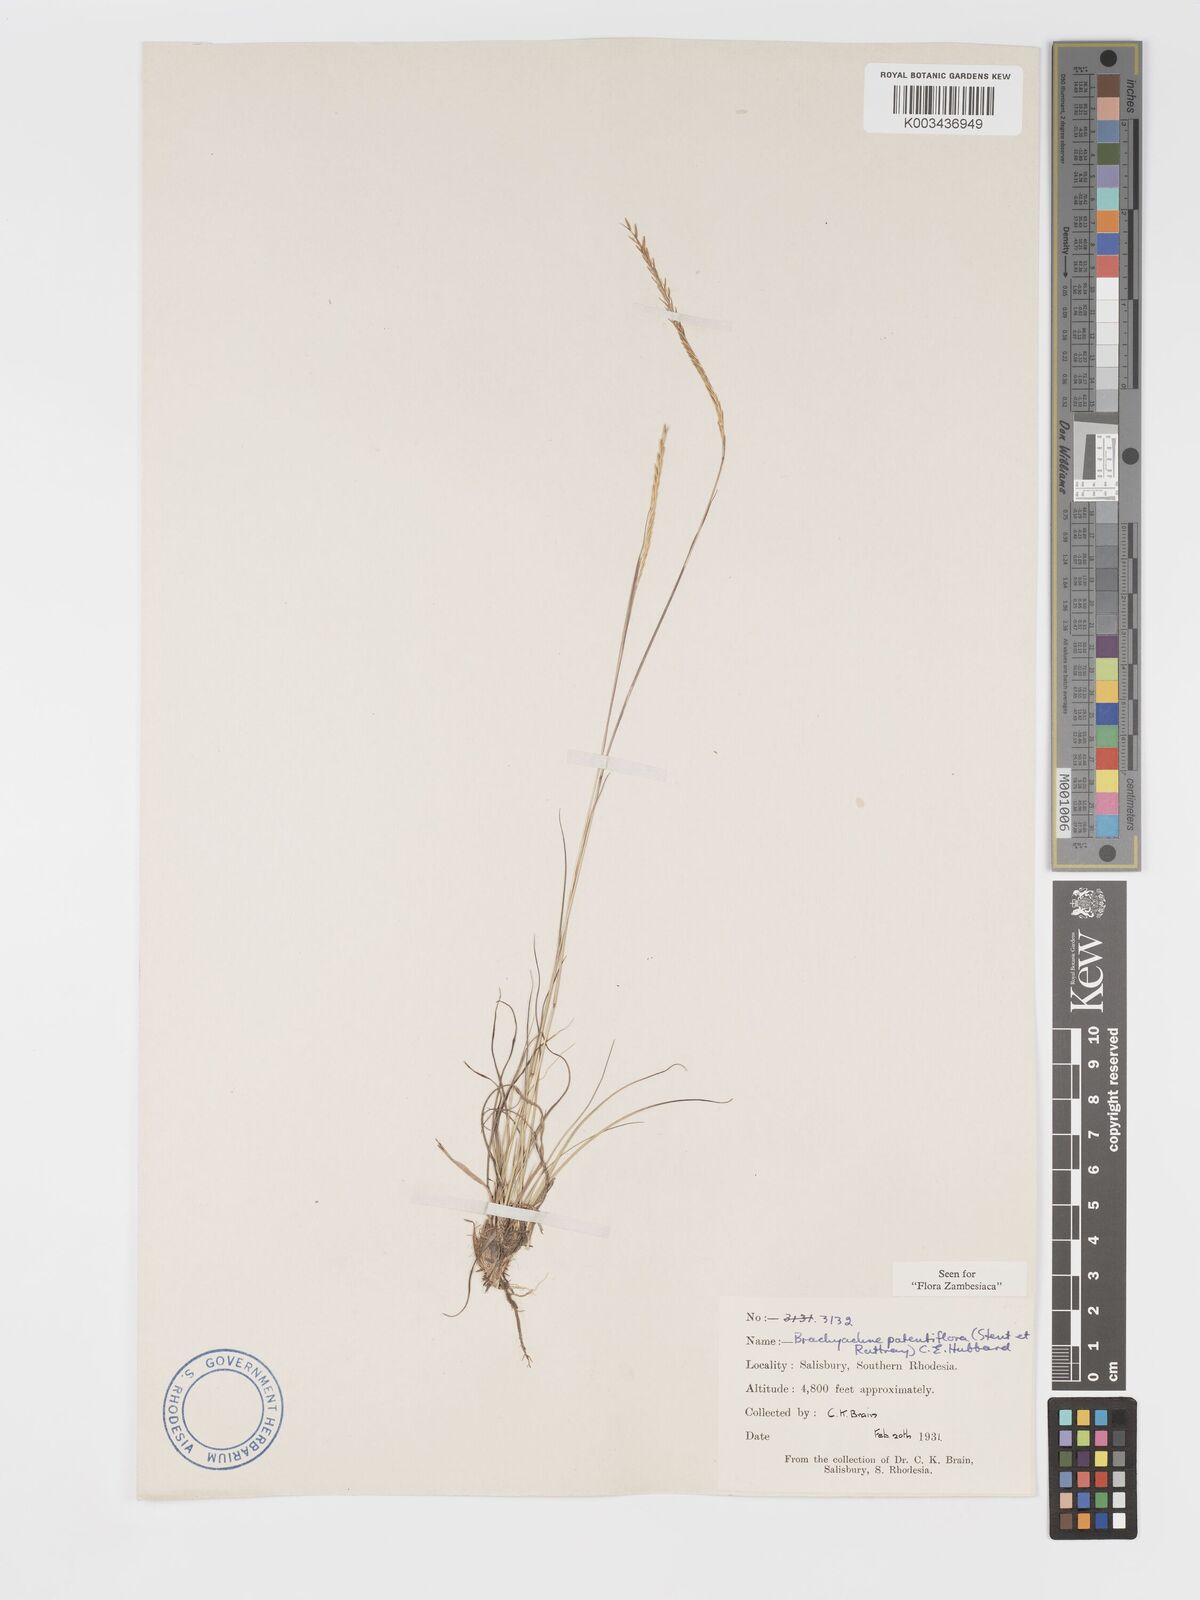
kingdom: Plantae
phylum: Tracheophyta
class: Liliopsida
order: Poales
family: Poaceae
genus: Micrachne
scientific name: Micrachne patentiflora
